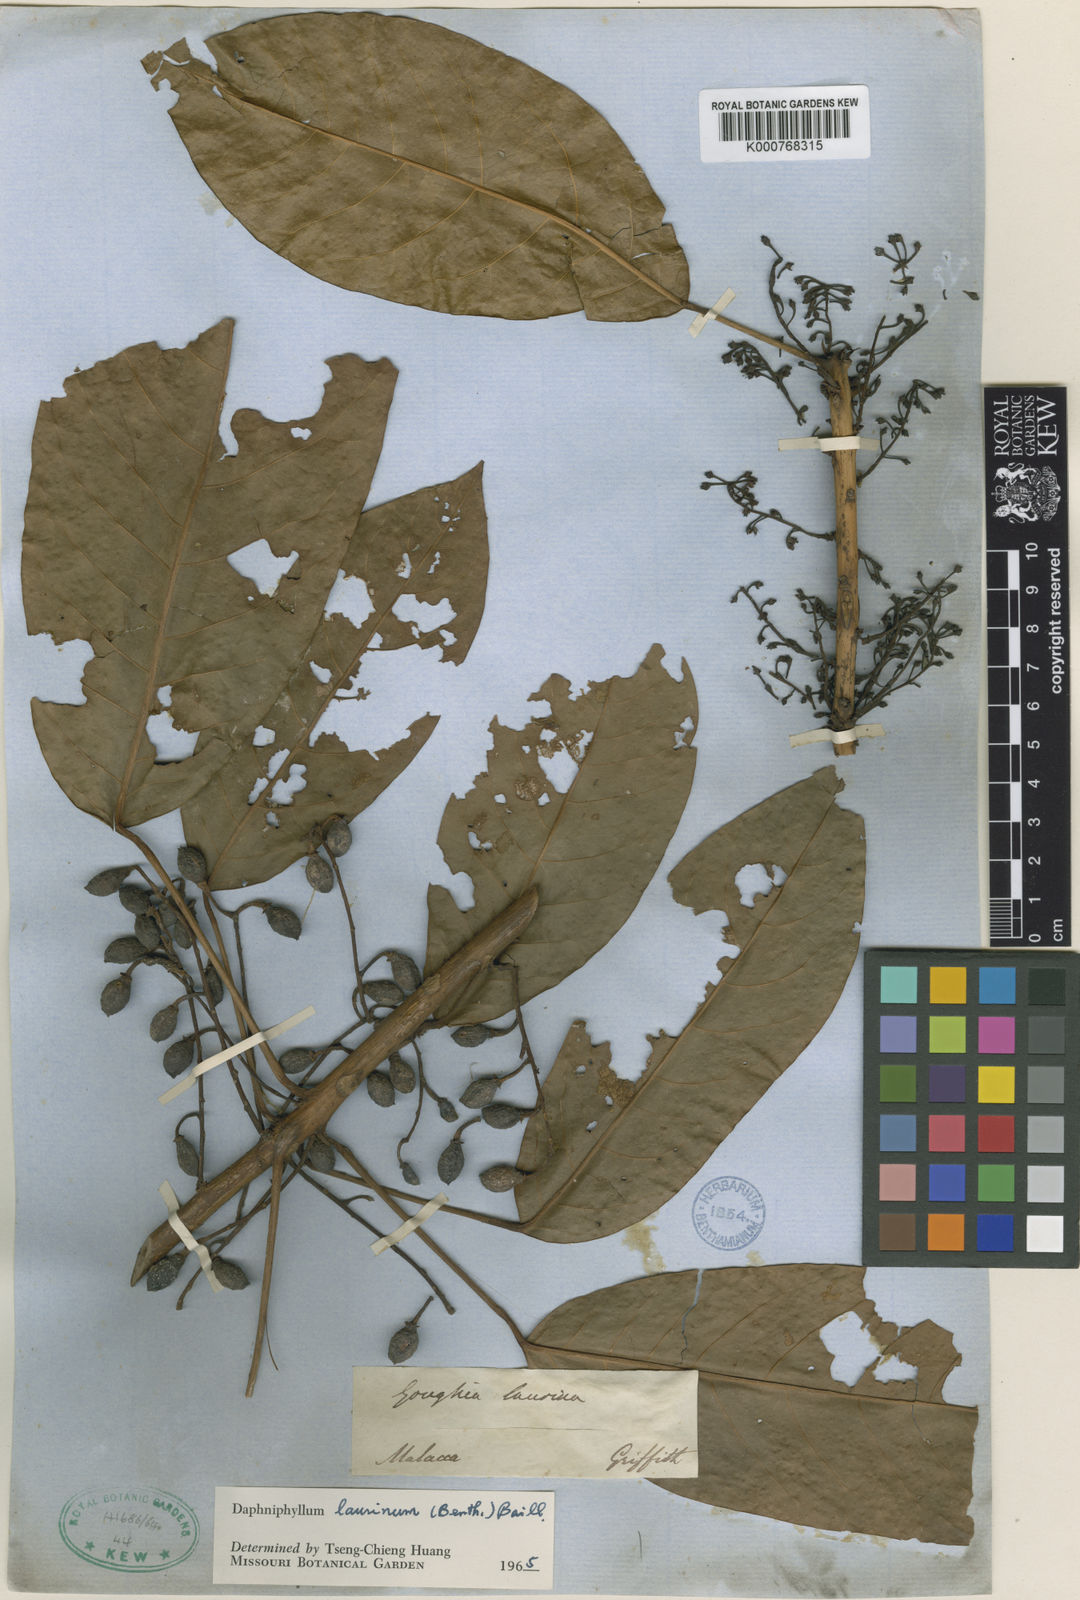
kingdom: Plantae
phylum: Tracheophyta
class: Magnoliopsida
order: Saxifragales
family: Daphniphyllaceae
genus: Daphniphyllum
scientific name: Daphniphyllum laurinum
